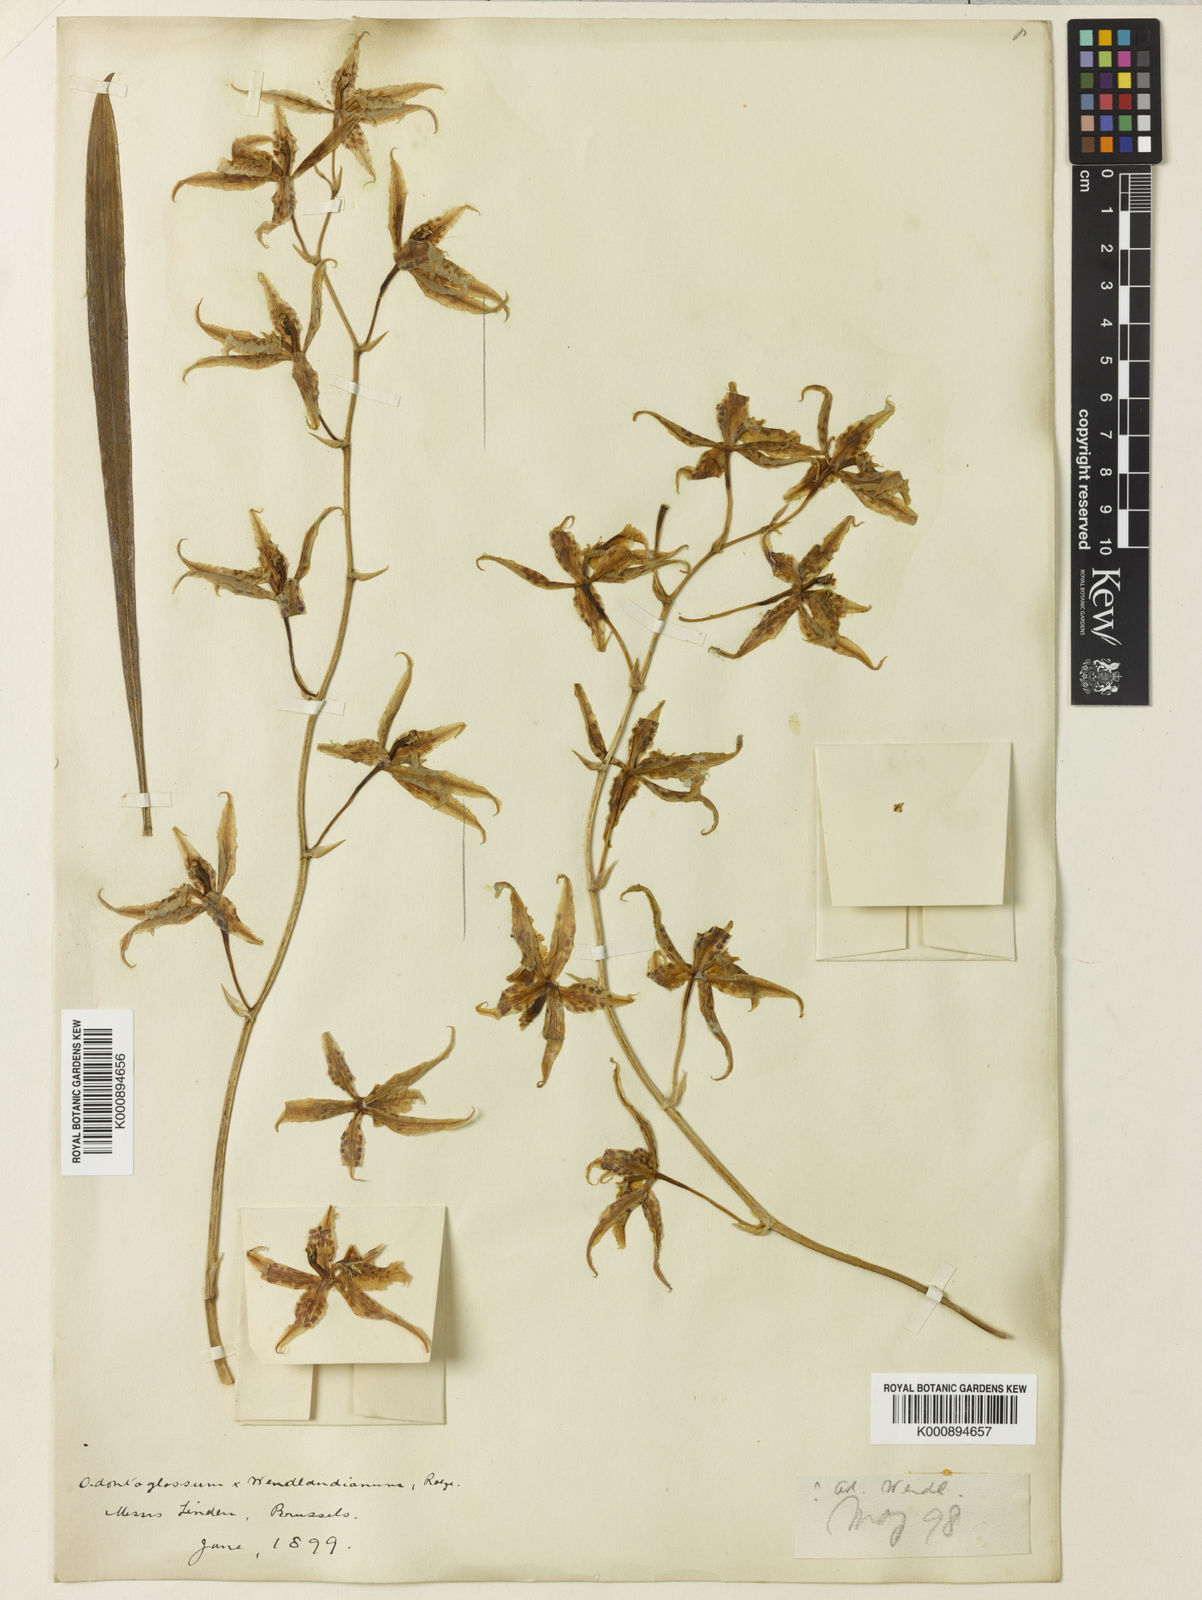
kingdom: Plantae
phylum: Tracheophyta
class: Liliopsida
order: Asparagales
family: Orchidaceae
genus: Oncidium
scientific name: Oncidium Odontoglossum wendlandianum
